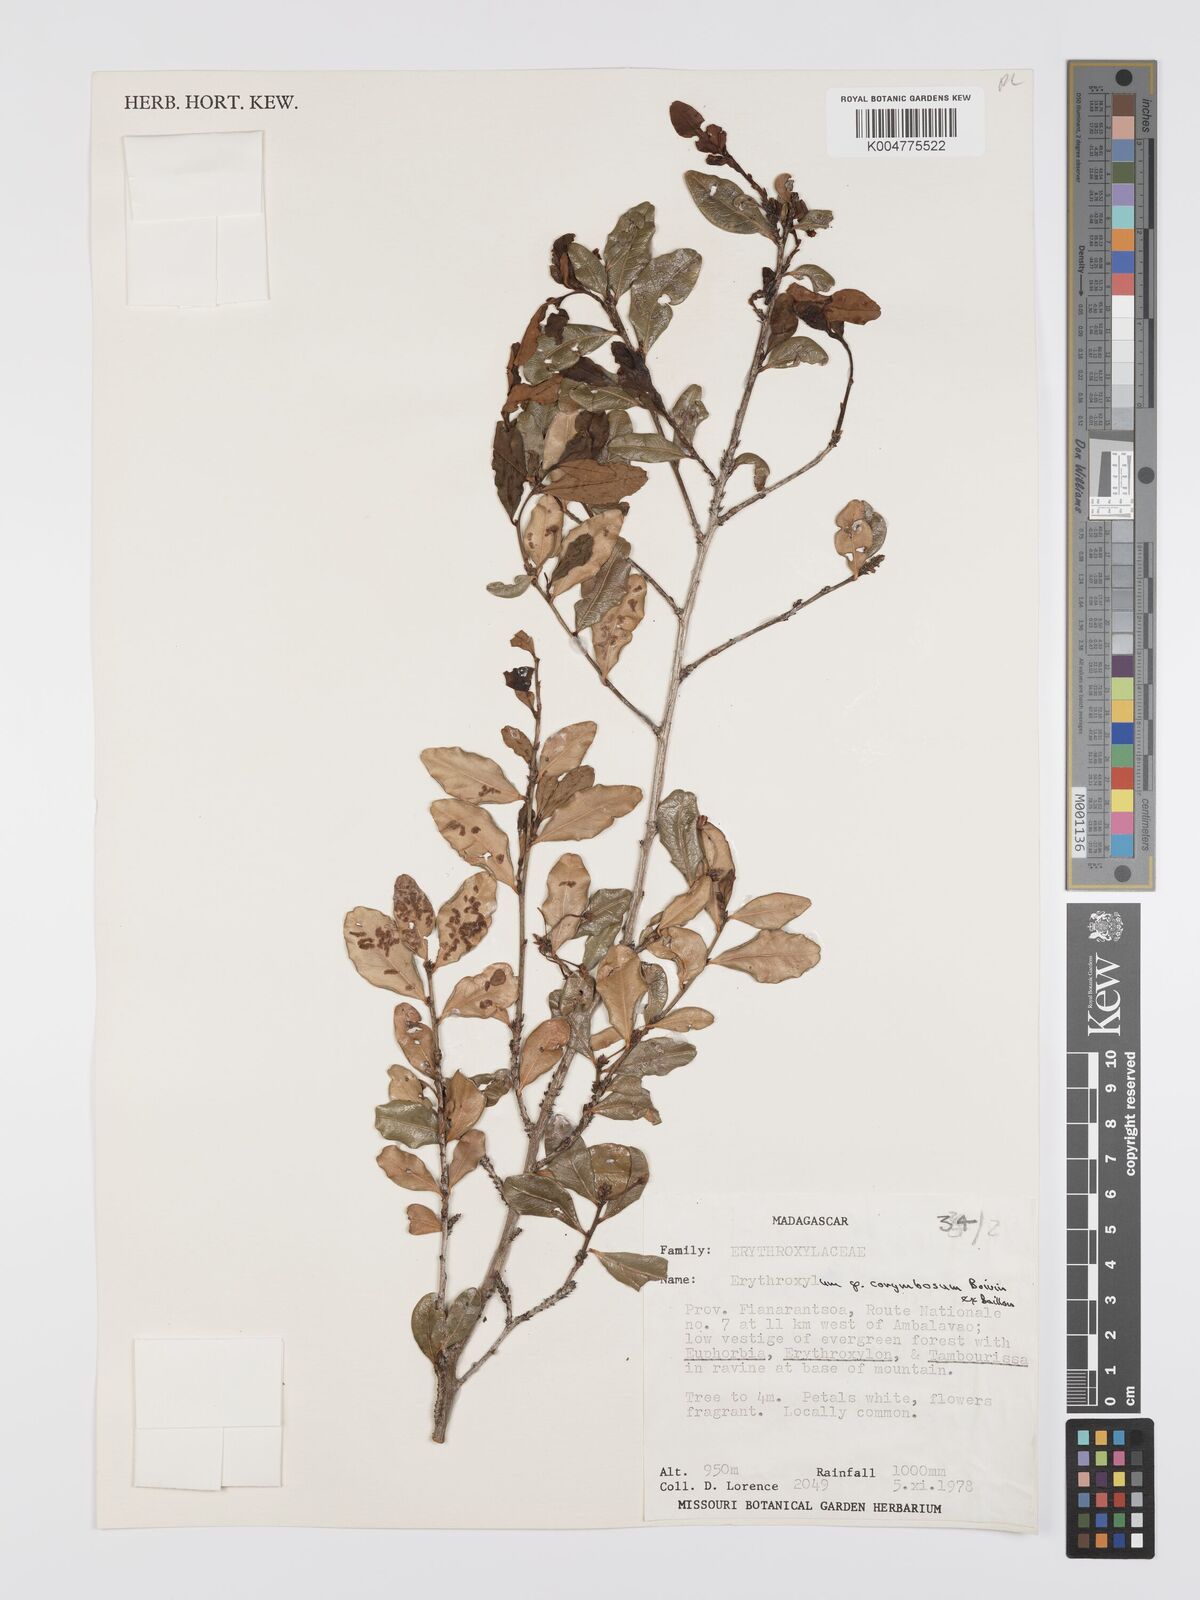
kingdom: Plantae
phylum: Tracheophyta
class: Magnoliopsida
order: Malpighiales
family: Erythroxylaceae
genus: Erythroxylum
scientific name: Erythroxylum corymbosum
